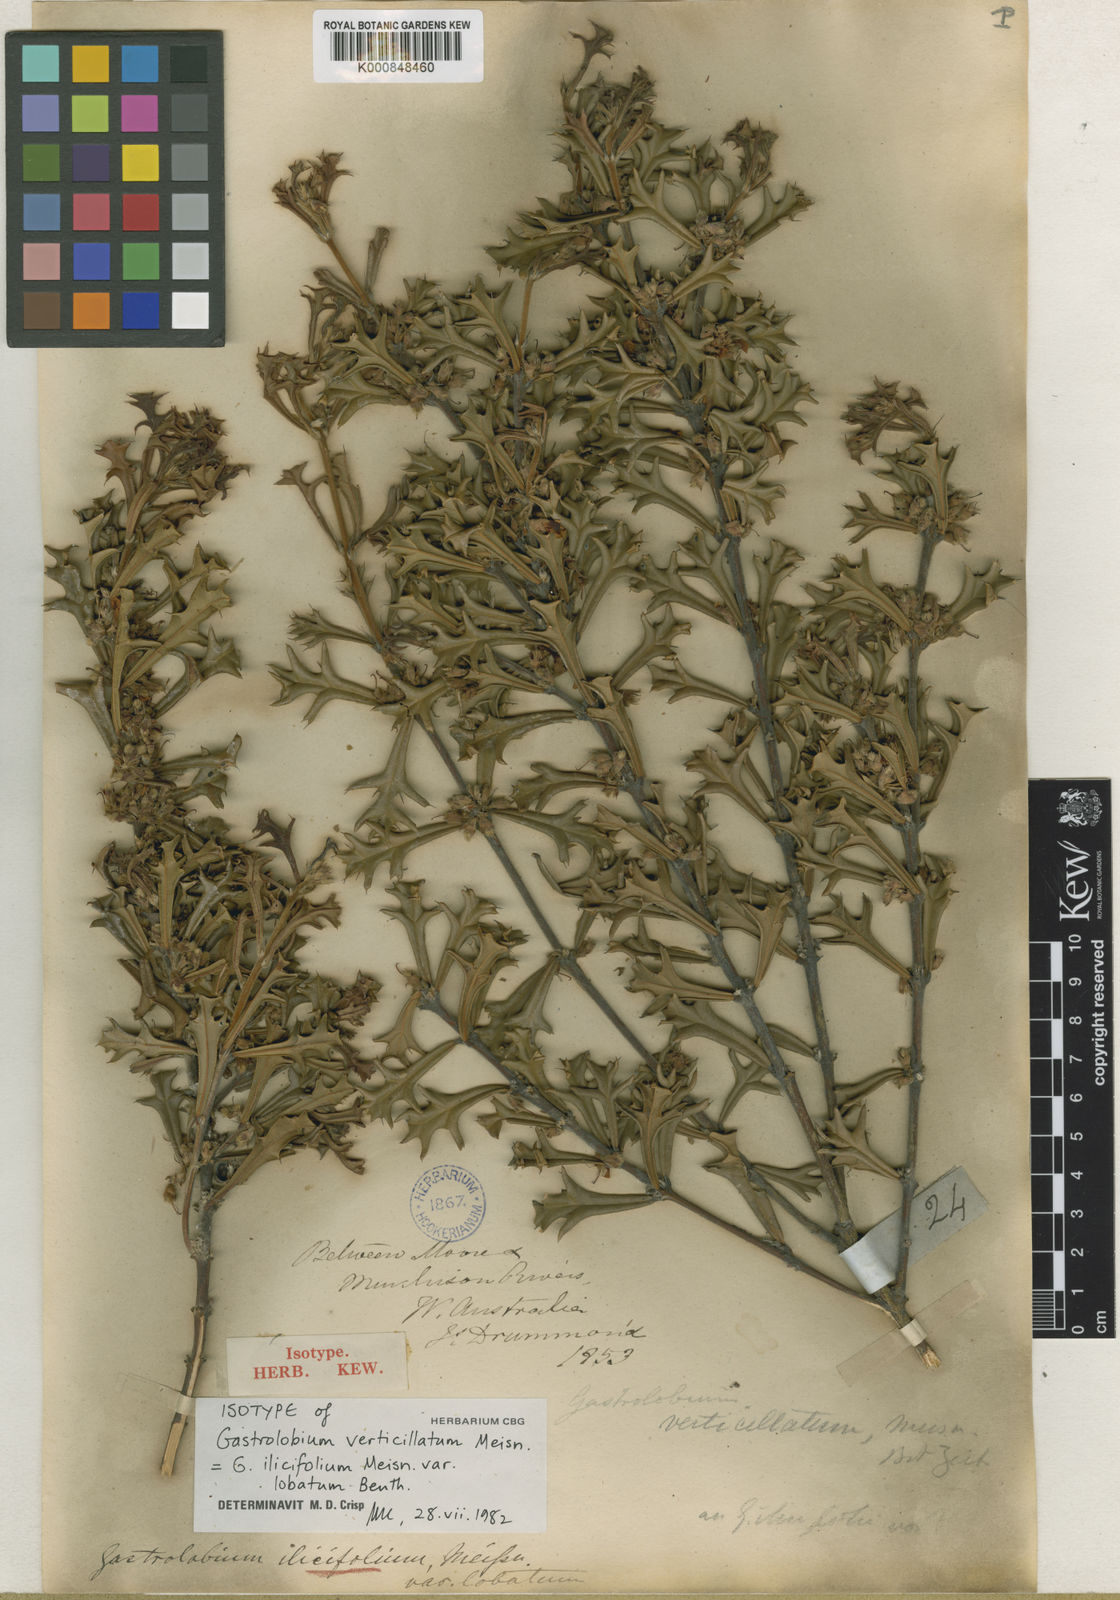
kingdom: Plantae
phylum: Tracheophyta
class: Magnoliopsida
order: Fabales
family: Fabaceae
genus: Gastrolobium
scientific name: Gastrolobium ilicifolium
